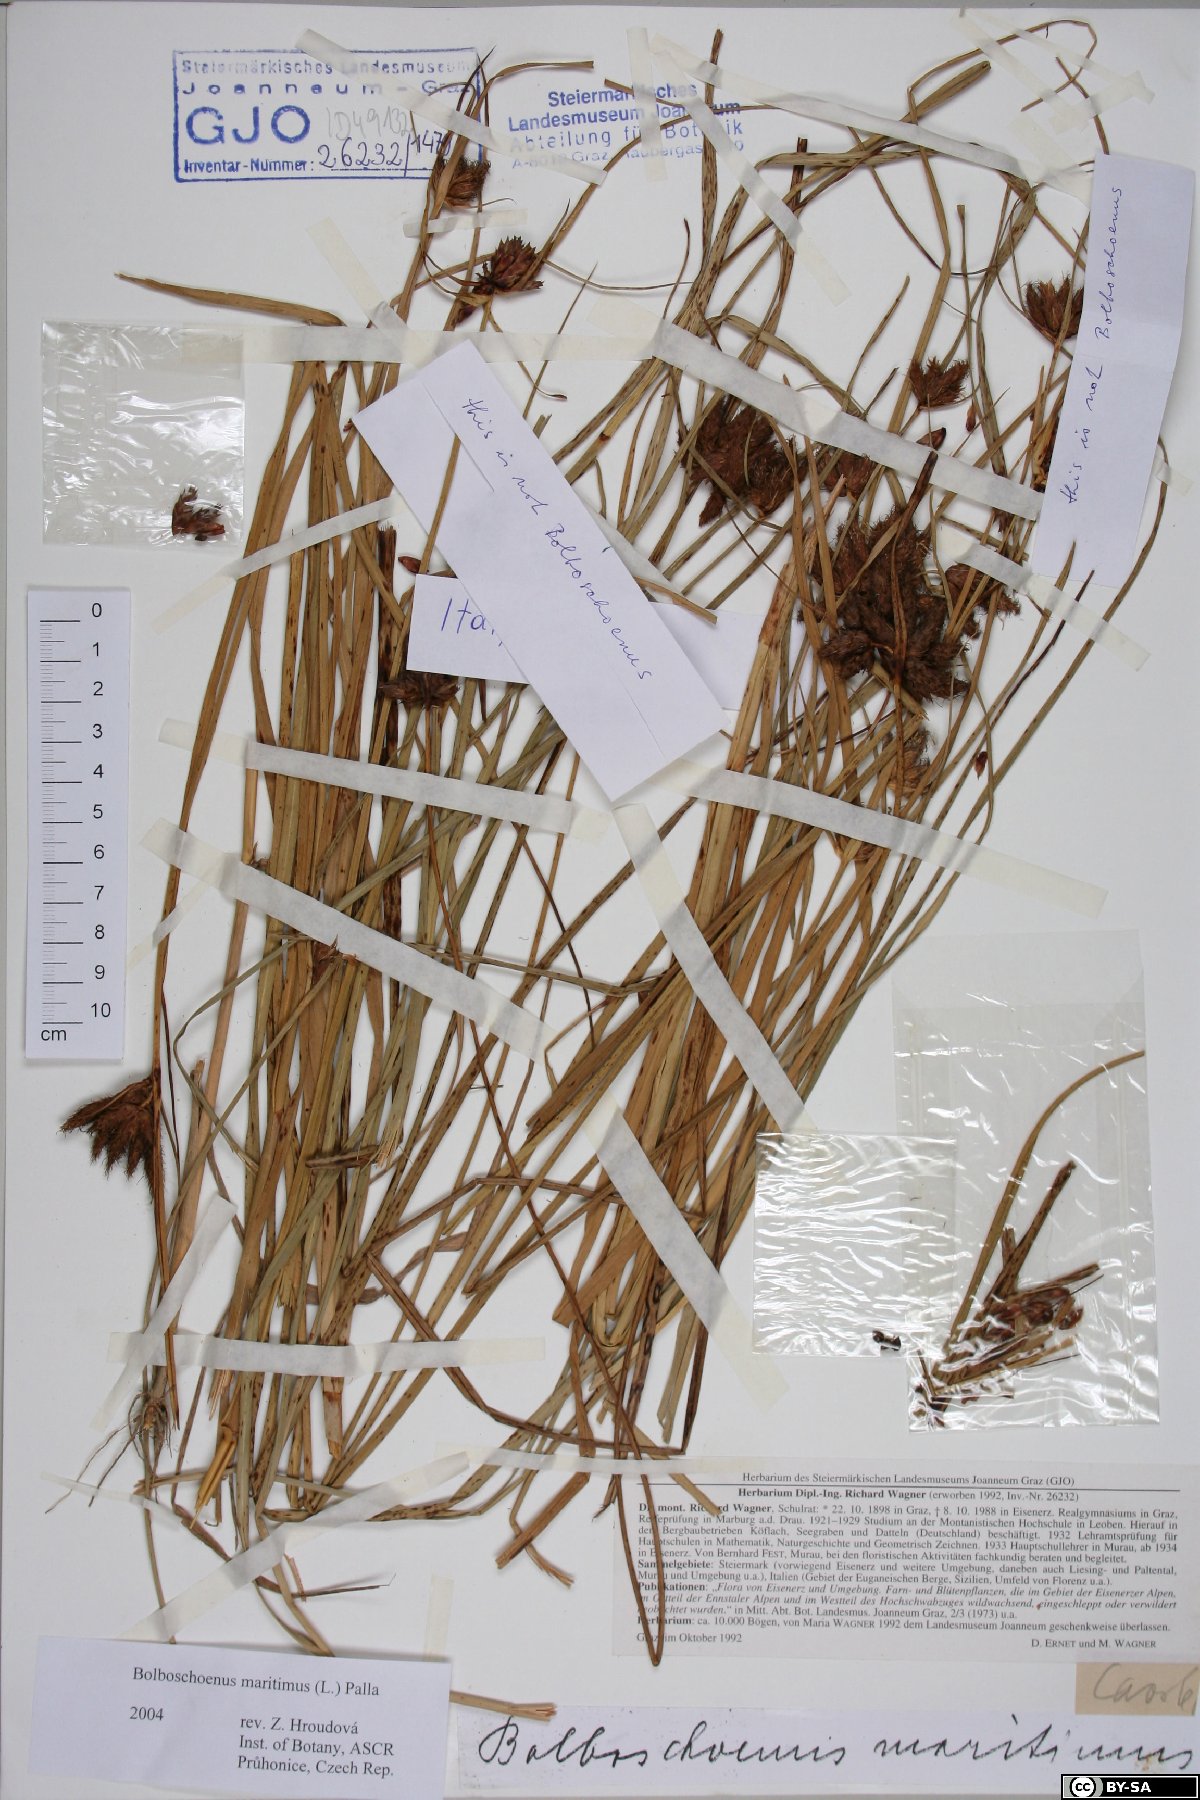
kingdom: Plantae
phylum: Tracheophyta
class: Liliopsida
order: Poales
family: Cyperaceae
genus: Bolboschoenus
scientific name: Bolboschoenus maritimus
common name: Sea club-rush
